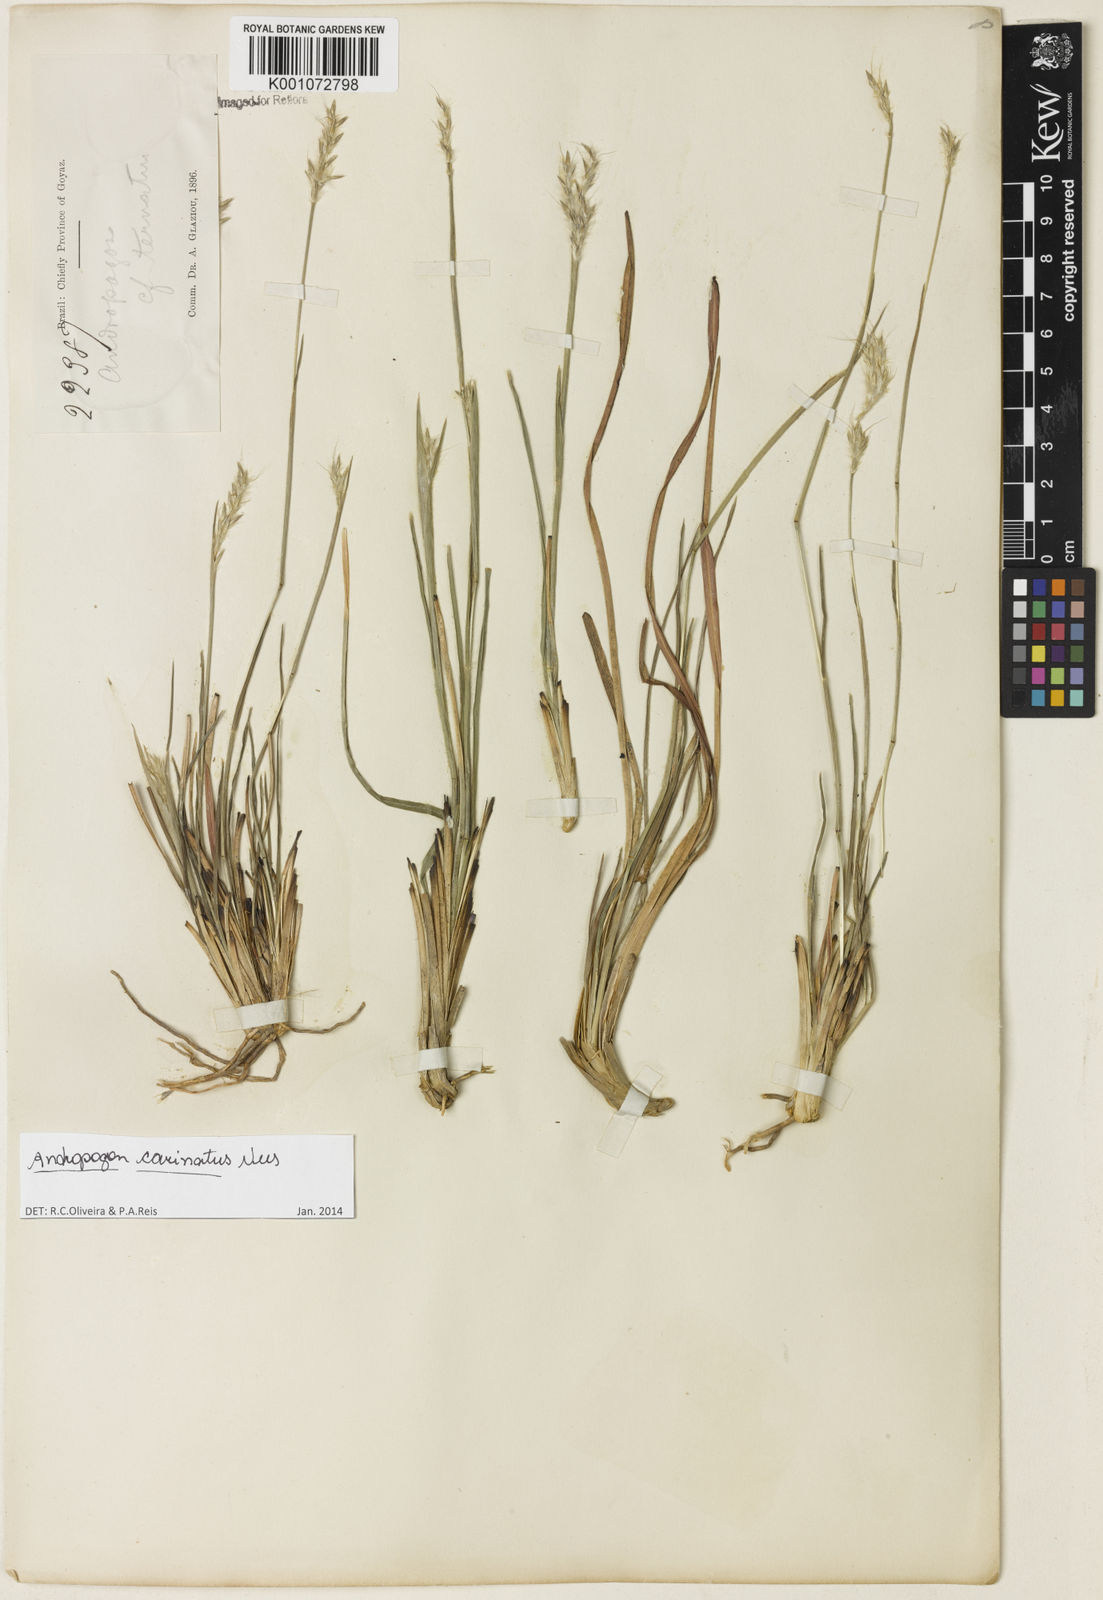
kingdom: Plantae
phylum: Tracheophyta
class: Liliopsida
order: Poales
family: Poaceae
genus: Andropogon
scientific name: Andropogon carinatus
